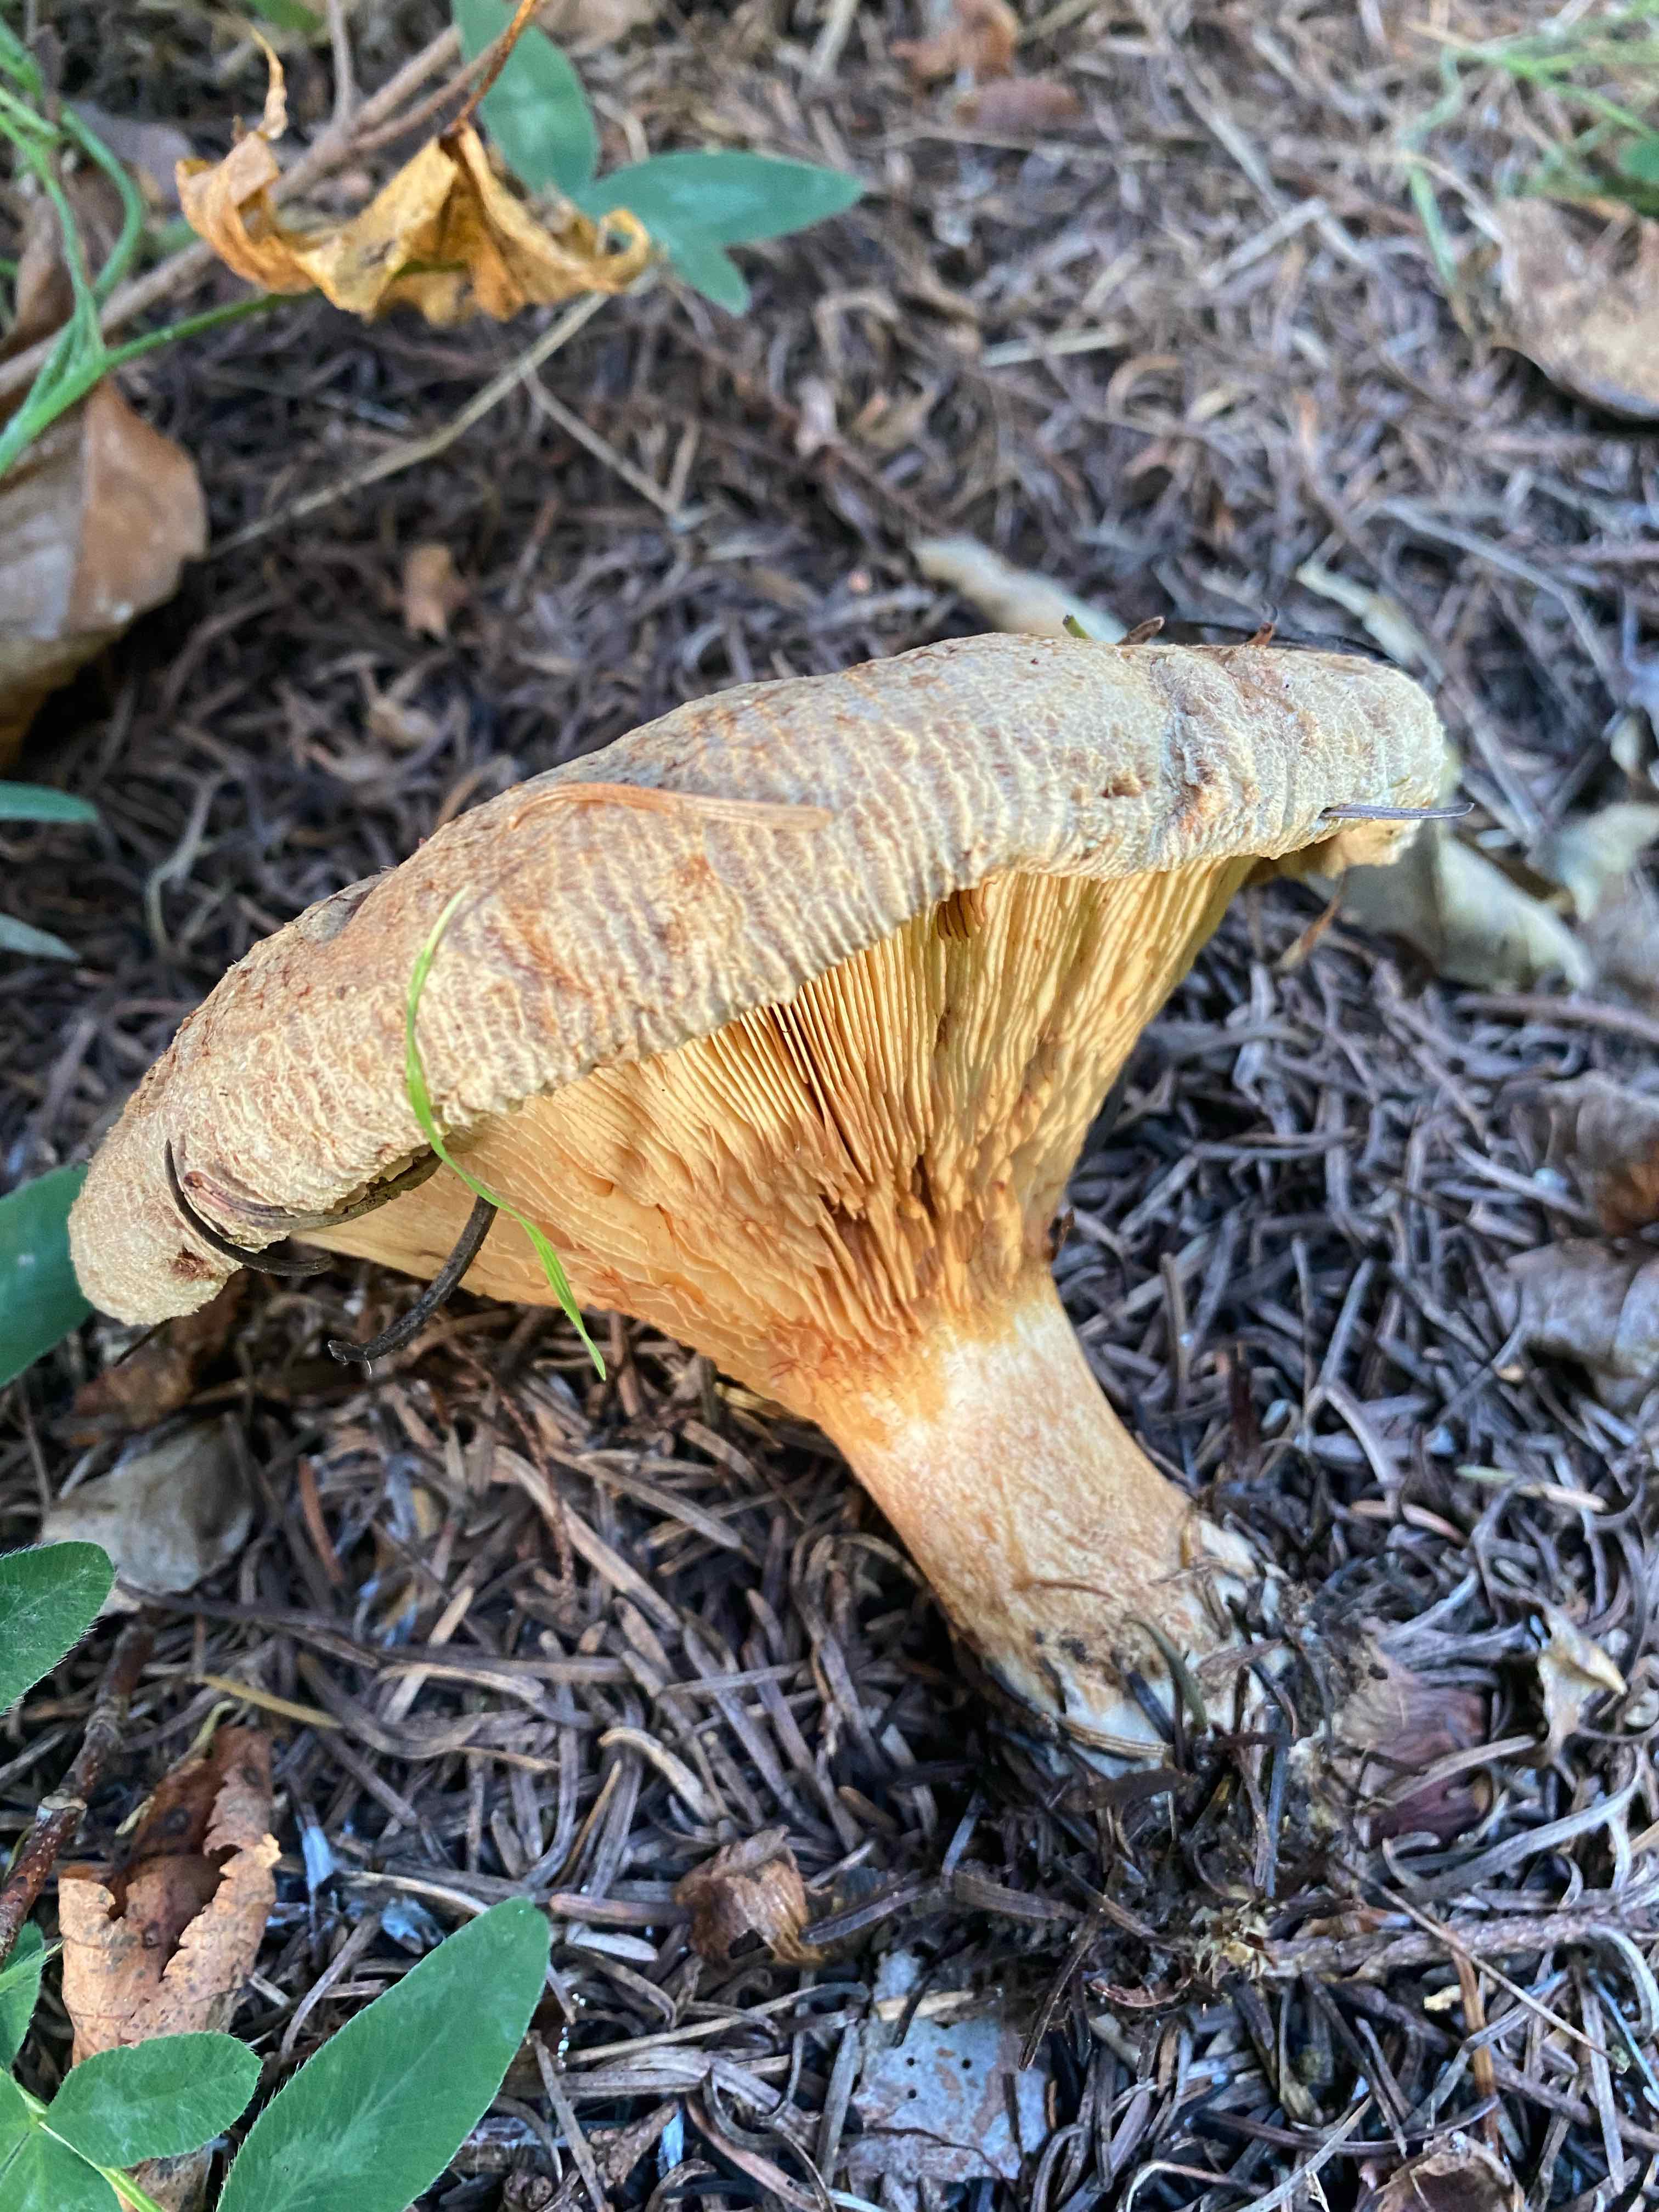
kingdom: Fungi
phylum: Basidiomycota
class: Agaricomycetes
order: Boletales
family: Paxillaceae
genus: Paxillus
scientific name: Paxillus involutus
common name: almindelig netbladhat
